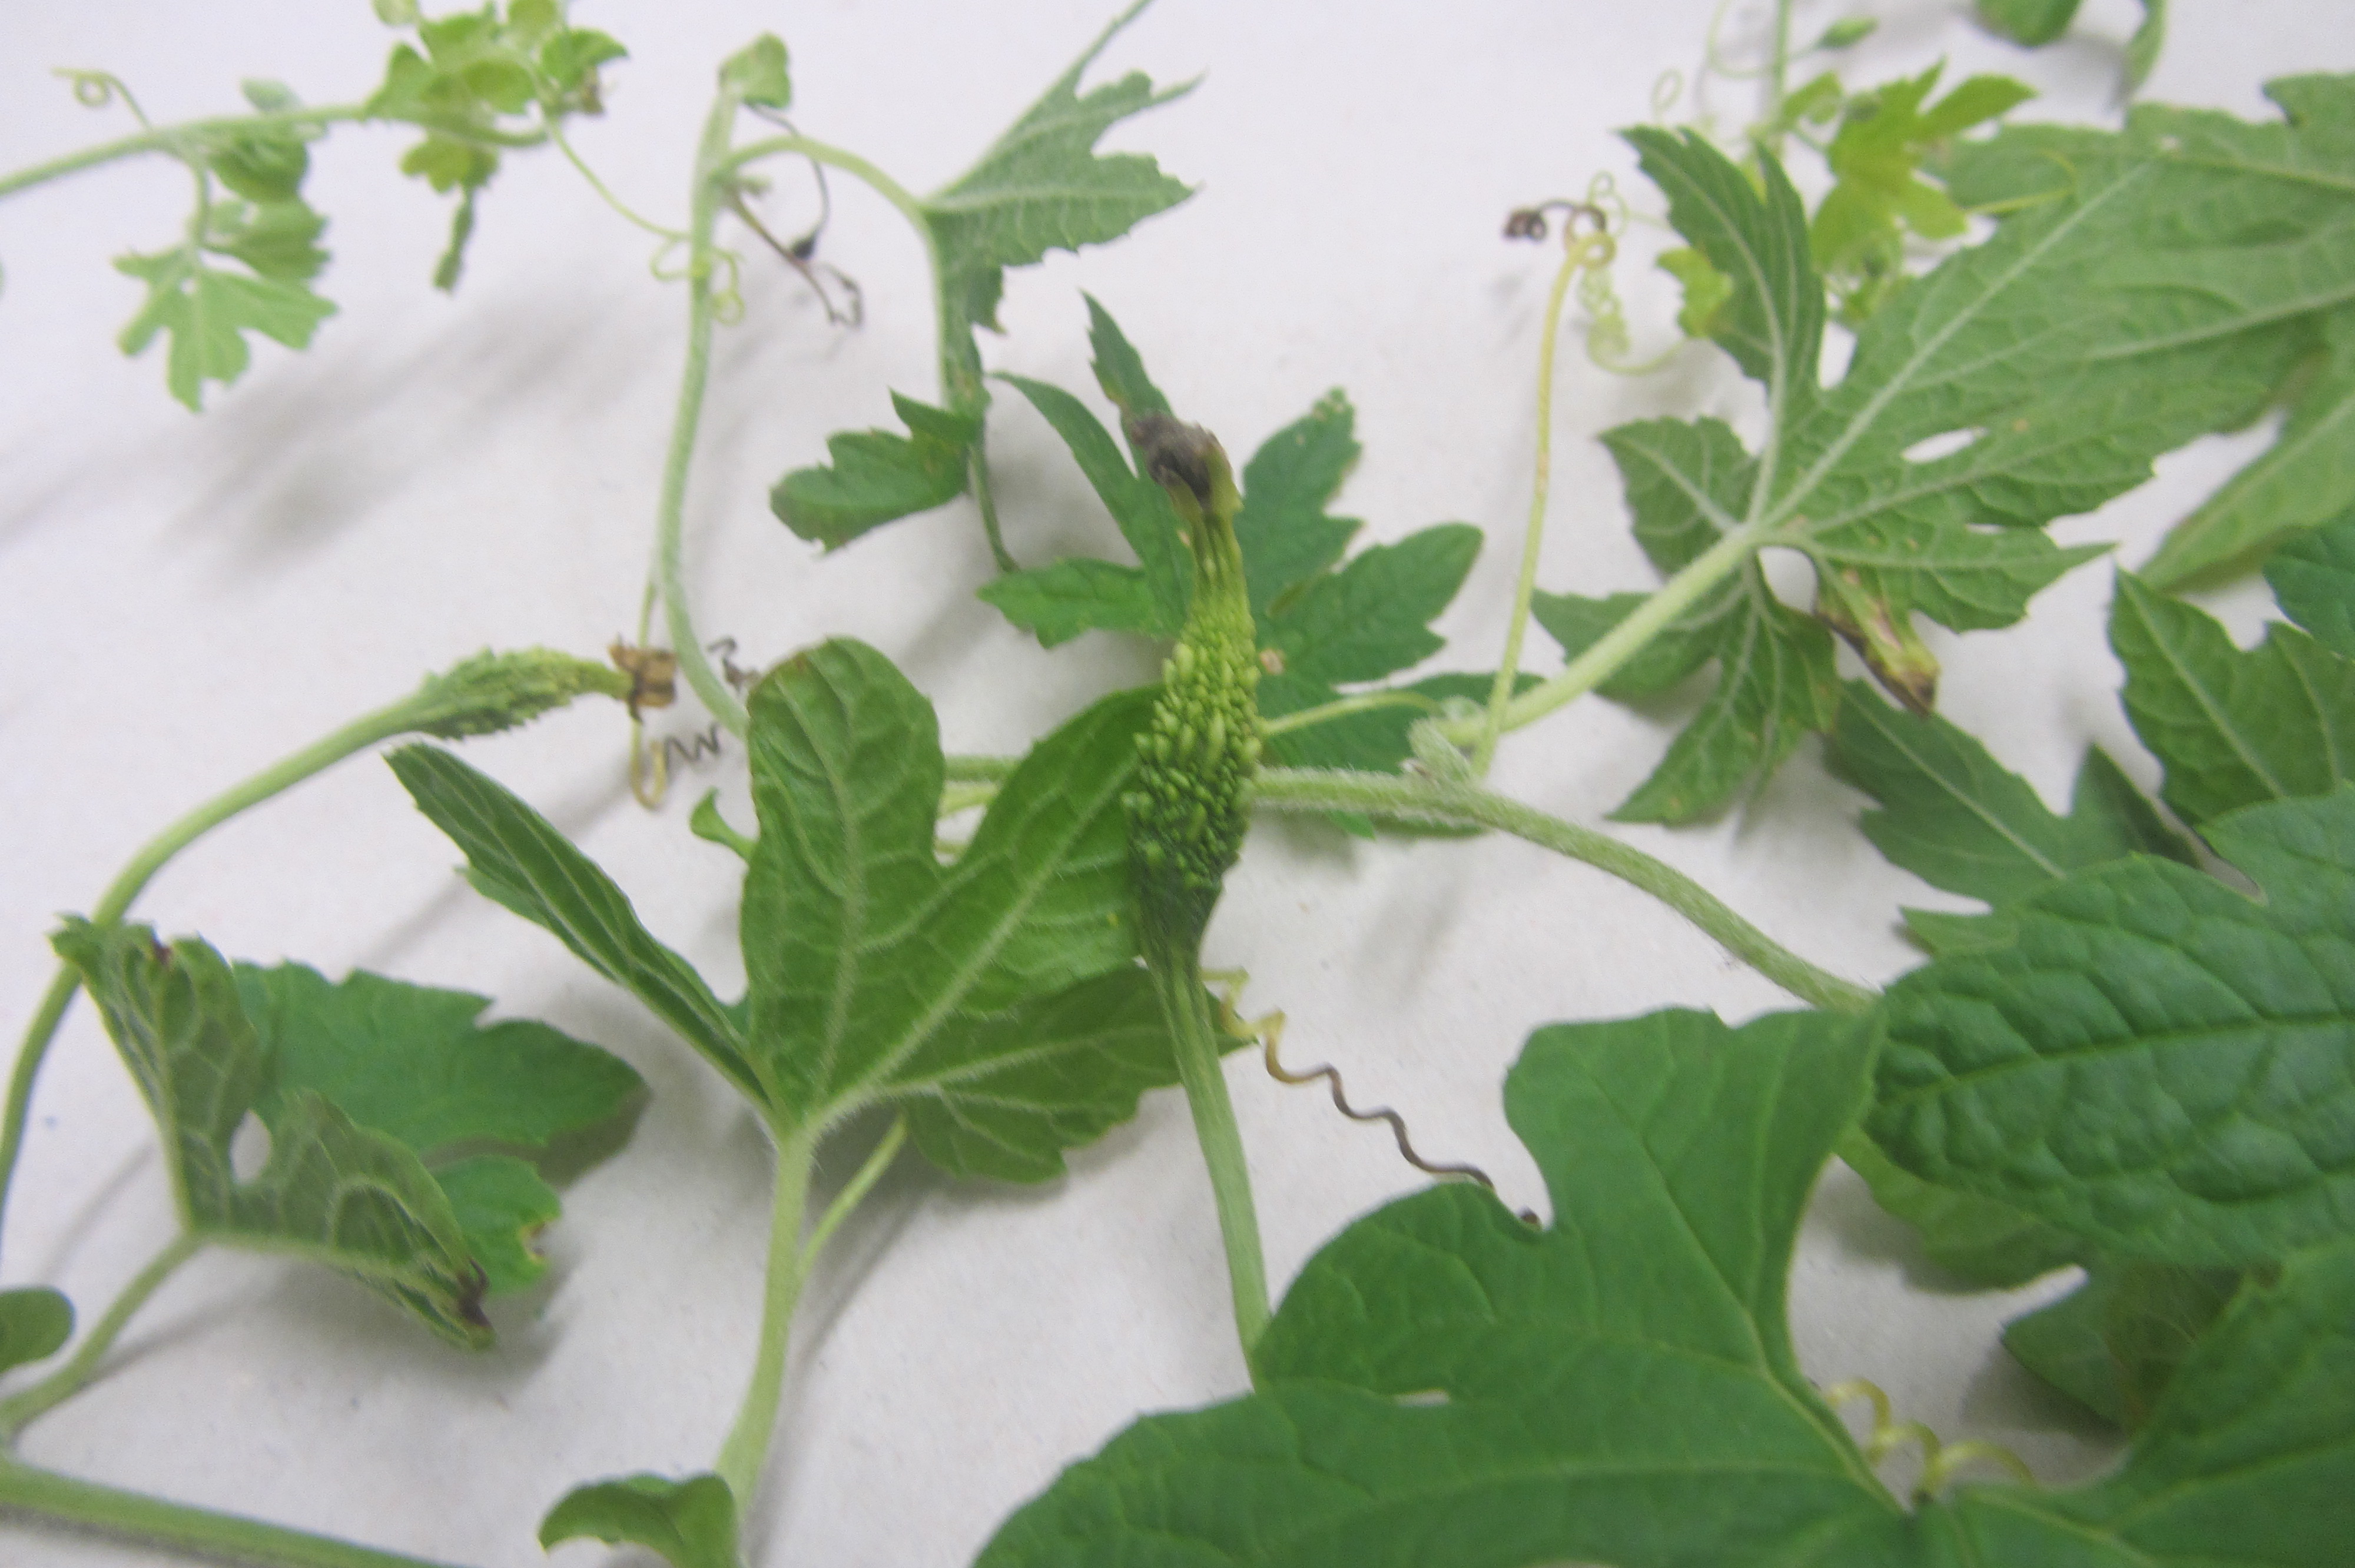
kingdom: Plantae
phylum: Tracheophyta
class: Magnoliopsida
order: Cucurbitales
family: Cucurbitaceae
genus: Momordica
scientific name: Momordica charantia
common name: Balsampear
